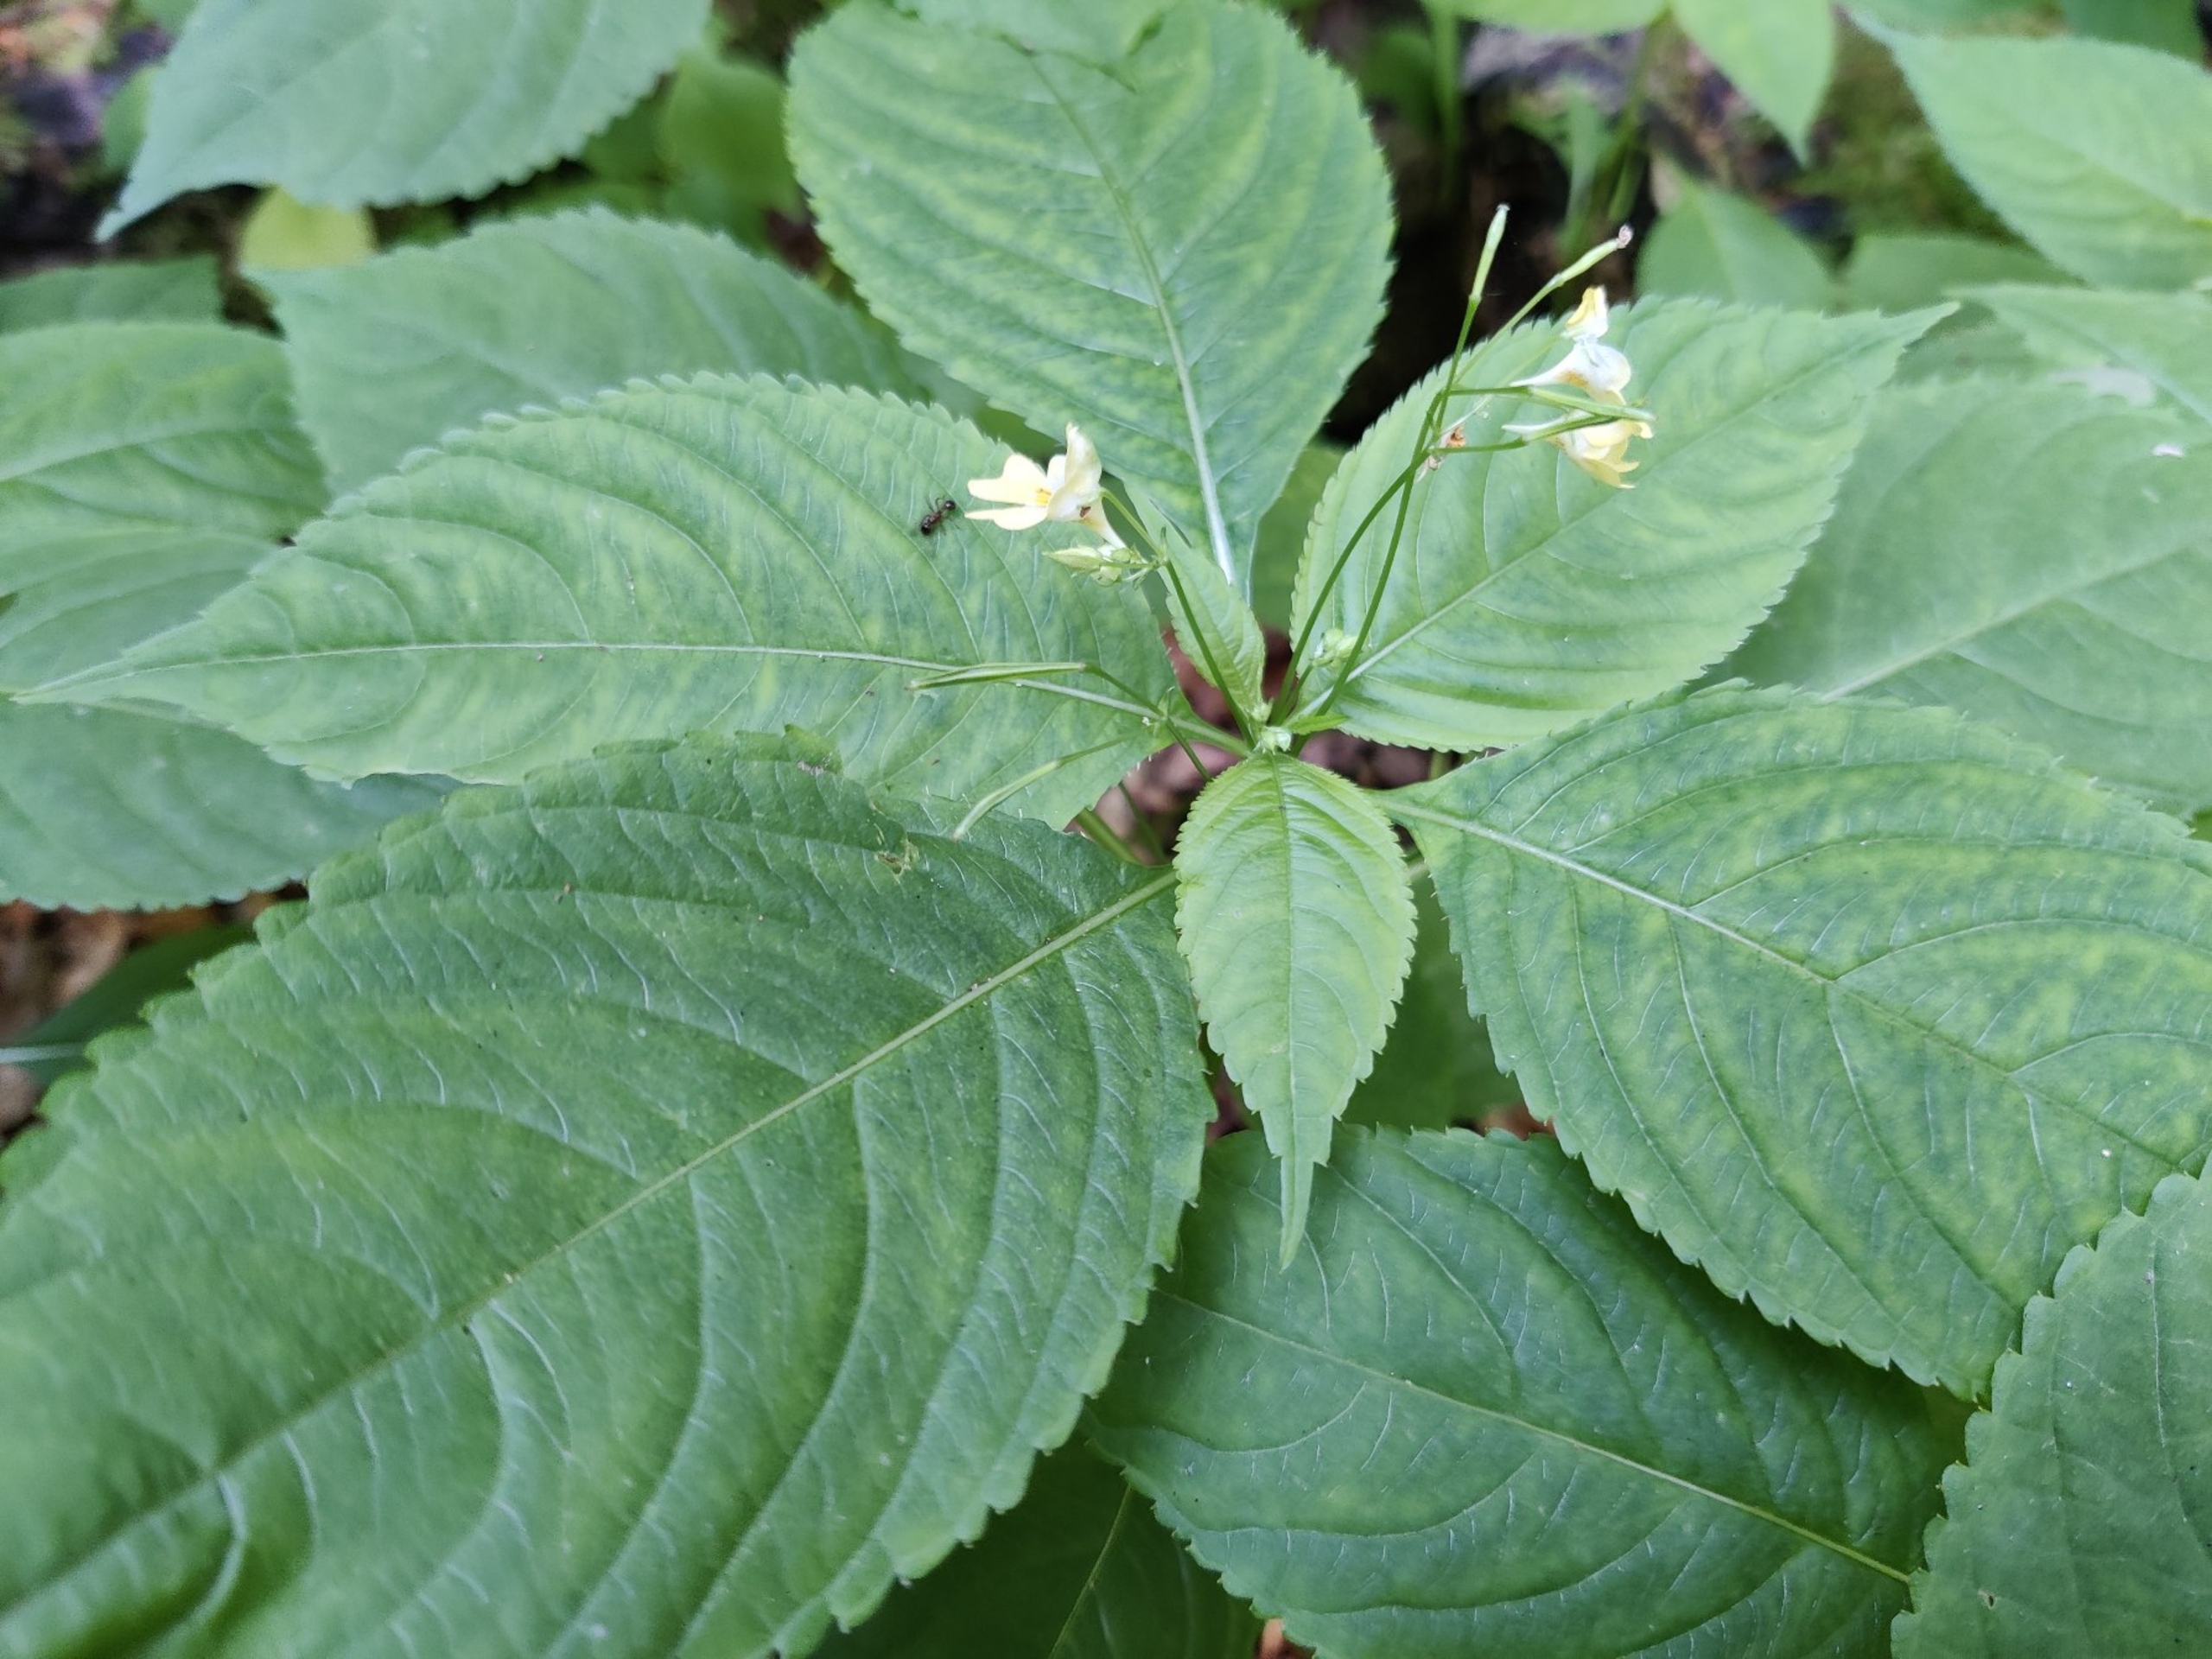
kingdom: Plantae
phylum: Tracheophyta
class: Magnoliopsida
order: Ericales
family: Balsaminaceae
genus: Impatiens
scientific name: Impatiens parviflora
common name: Småblomstret balsamin
